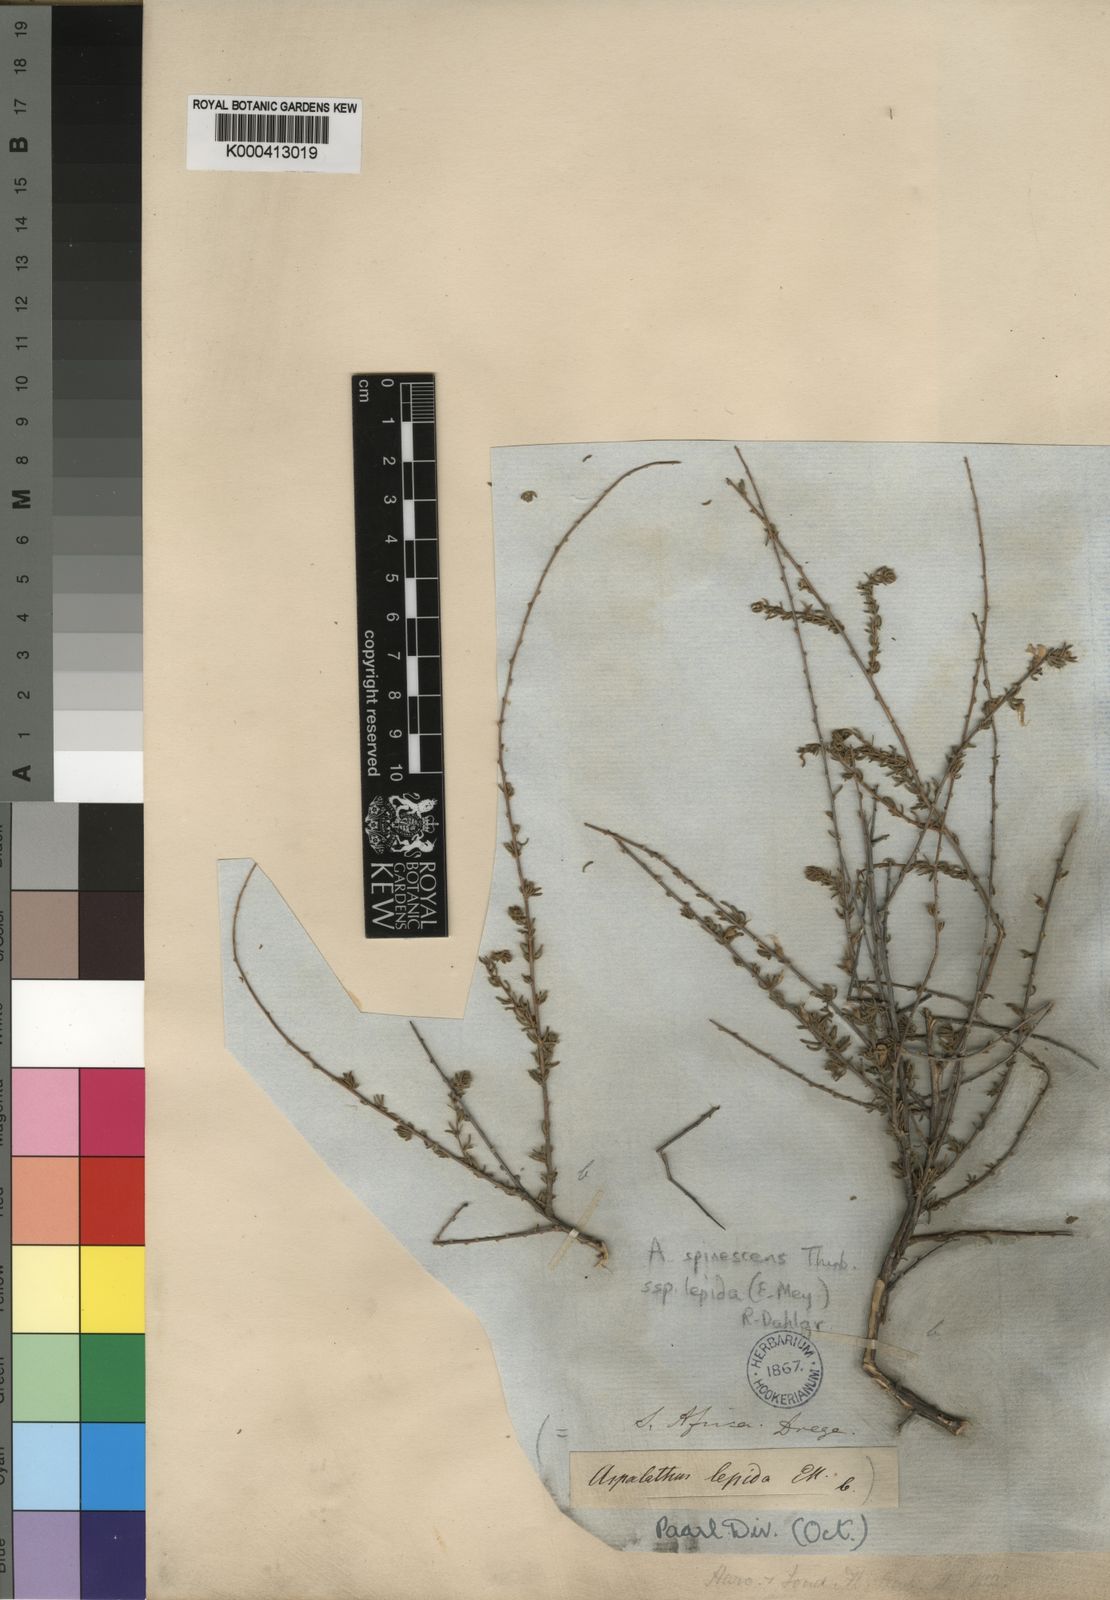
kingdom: Plantae
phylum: Tracheophyta
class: Magnoliopsida
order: Fabales
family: Fabaceae
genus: Aspalathus
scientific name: Aspalathus spinescens
